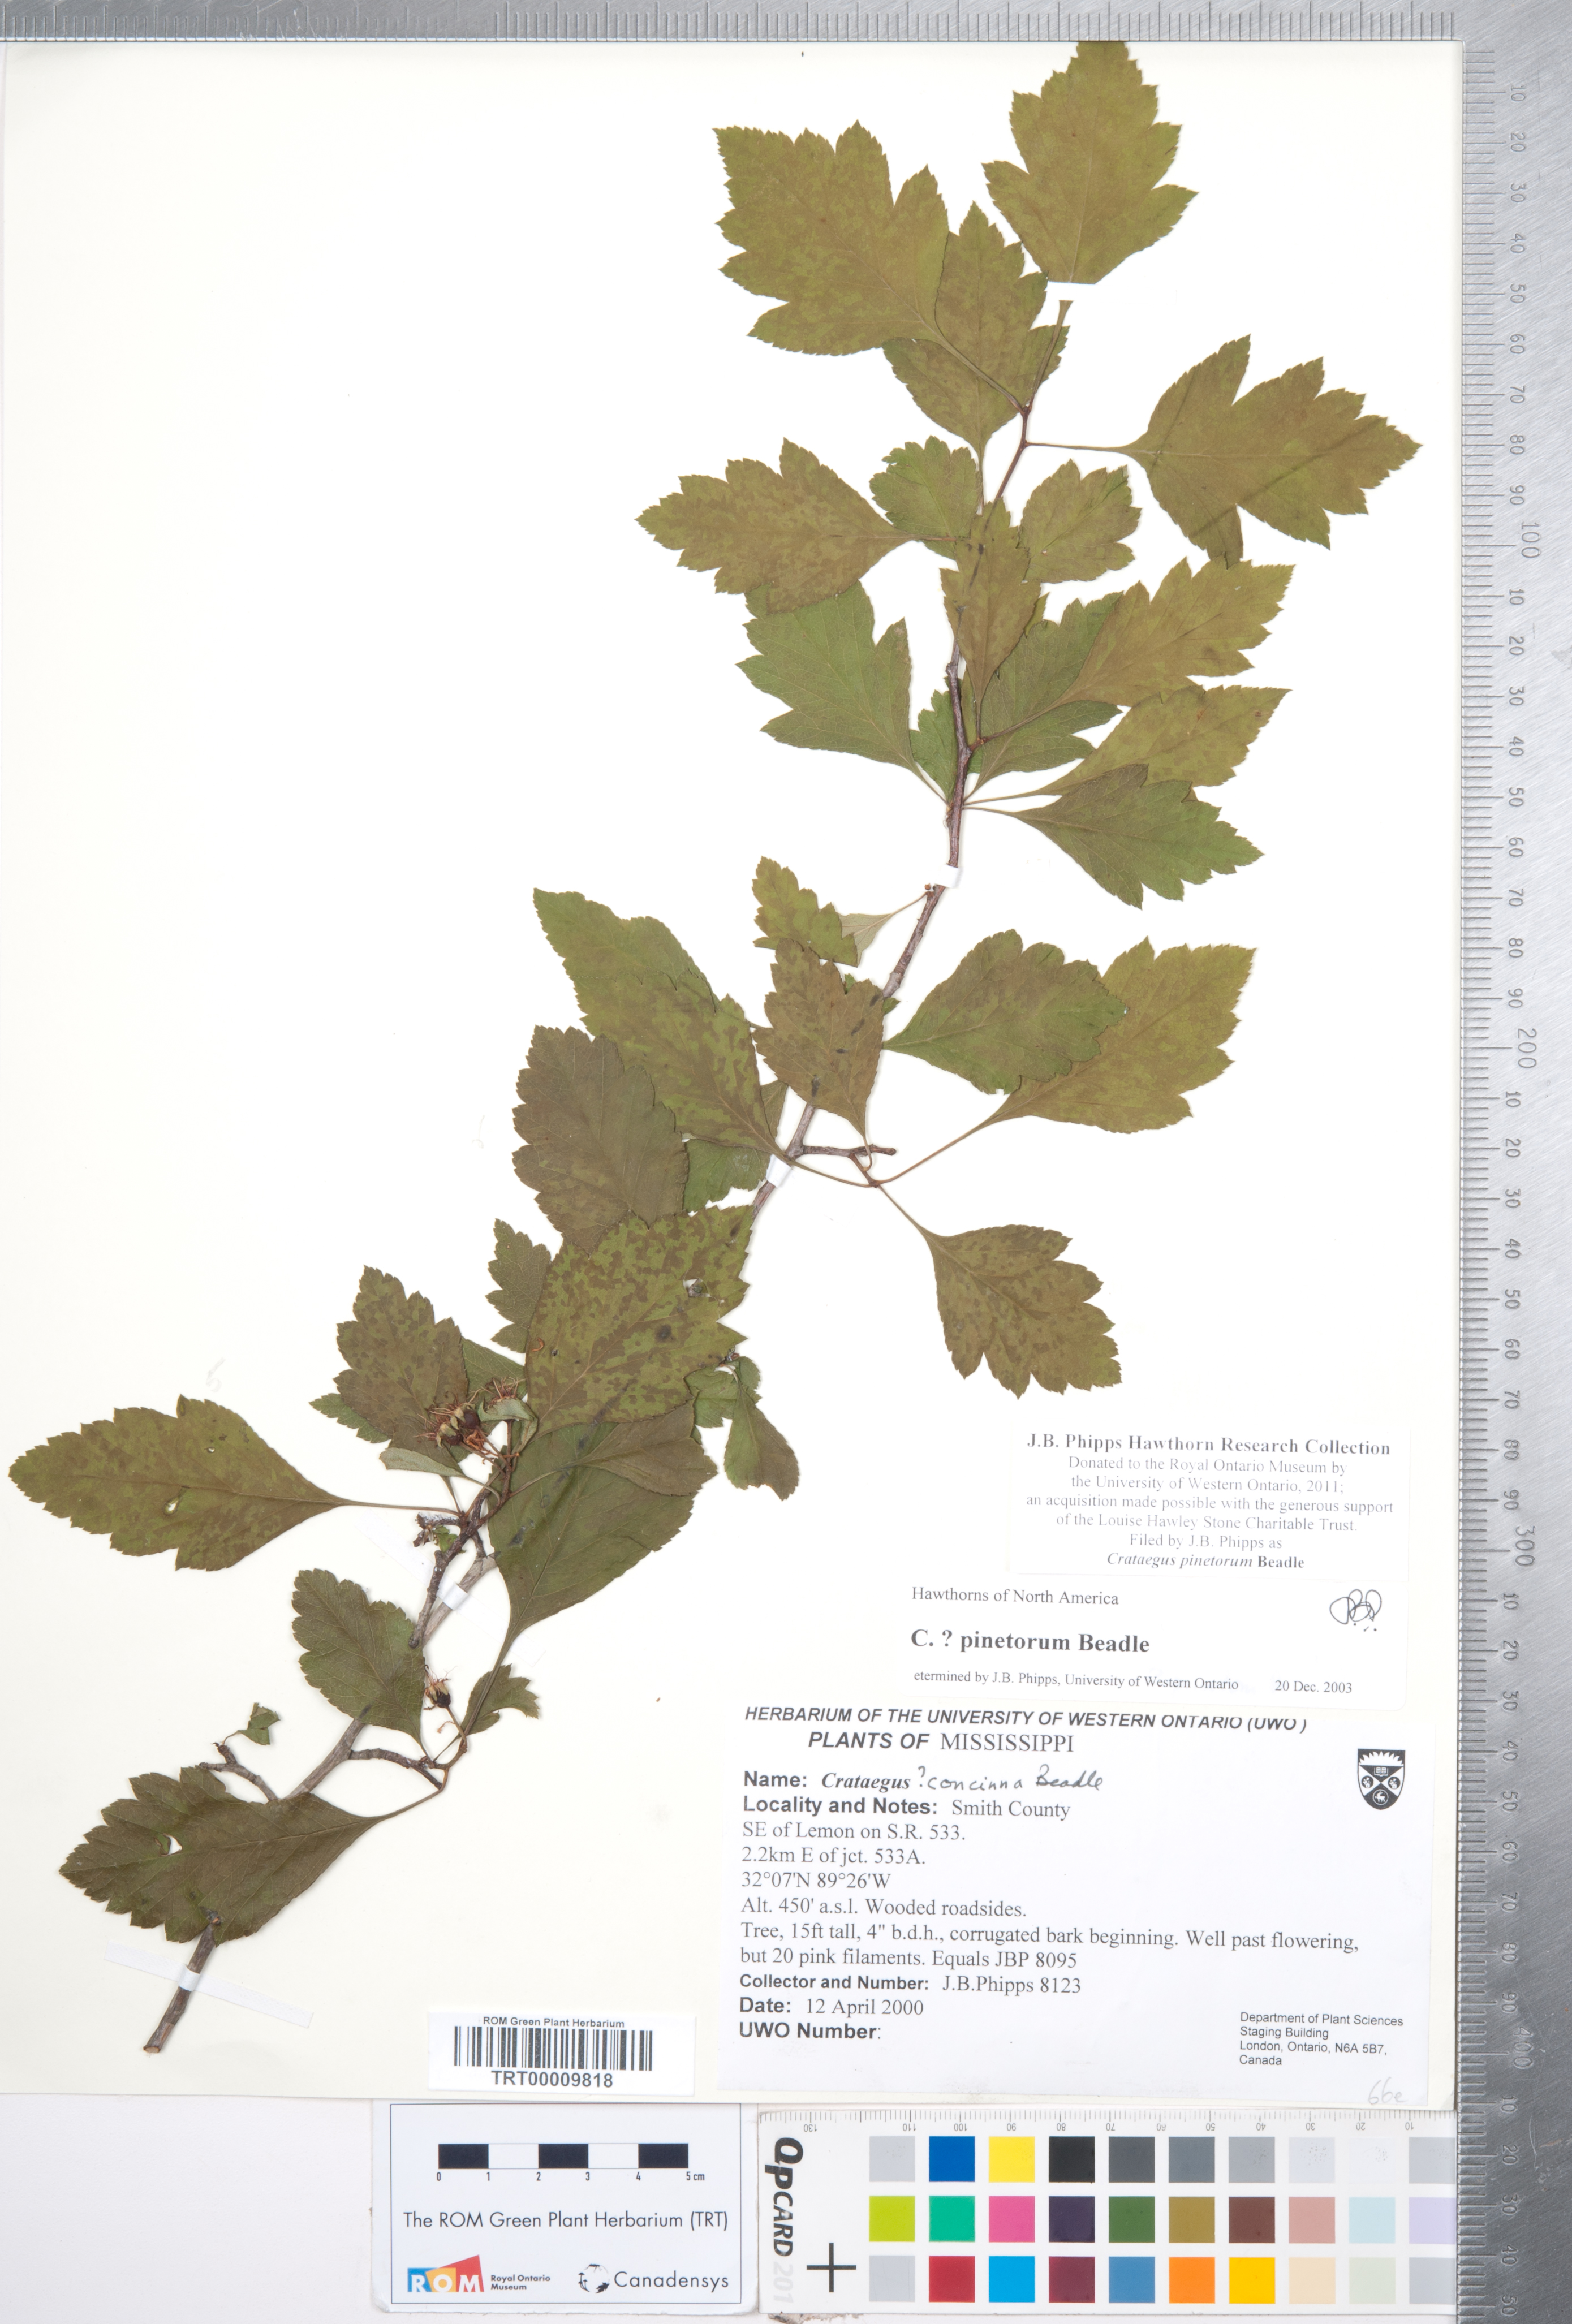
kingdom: Plantae
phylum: Tracheophyta
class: Magnoliopsida
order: Rosales
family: Rosaceae
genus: Crataegus
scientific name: Crataegus pulcherrima
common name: Beautiful hawthorn
